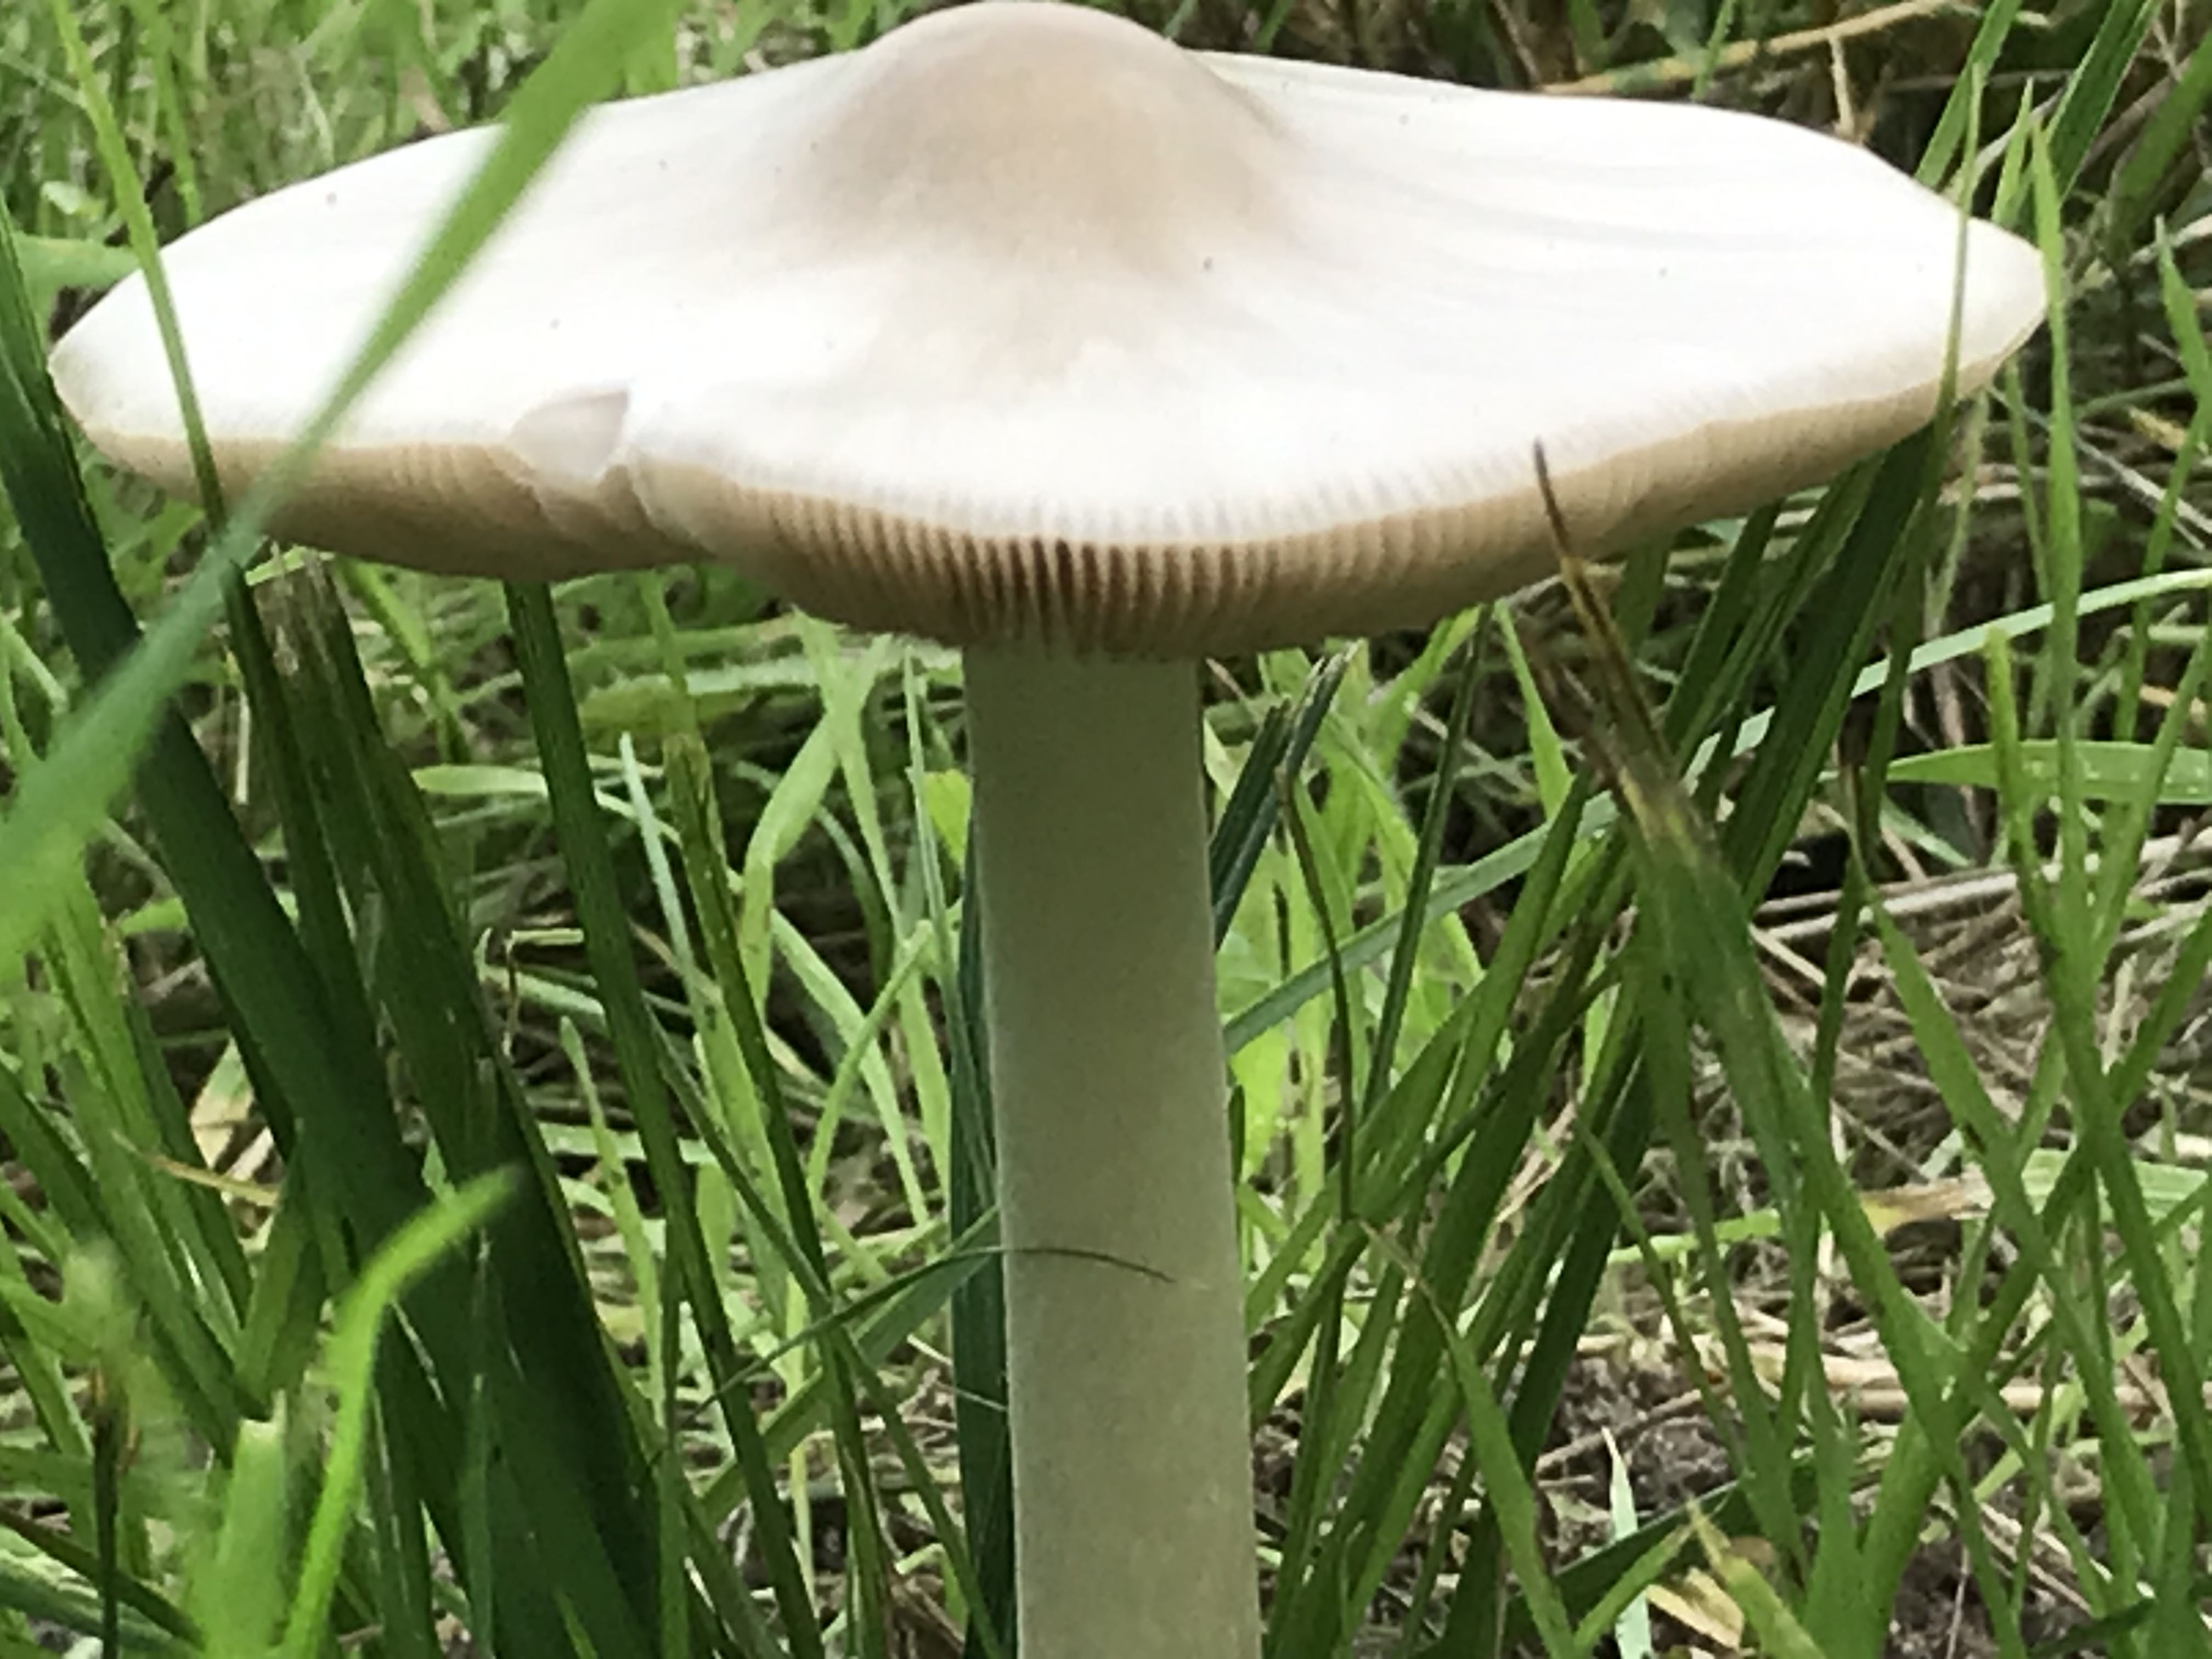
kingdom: Fungi
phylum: Basidiomycota
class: Agaricomycetes
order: Agaricales
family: Pluteaceae
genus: Volvopluteus
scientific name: Volvopluteus gloiocephalus
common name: høj posesvamp
